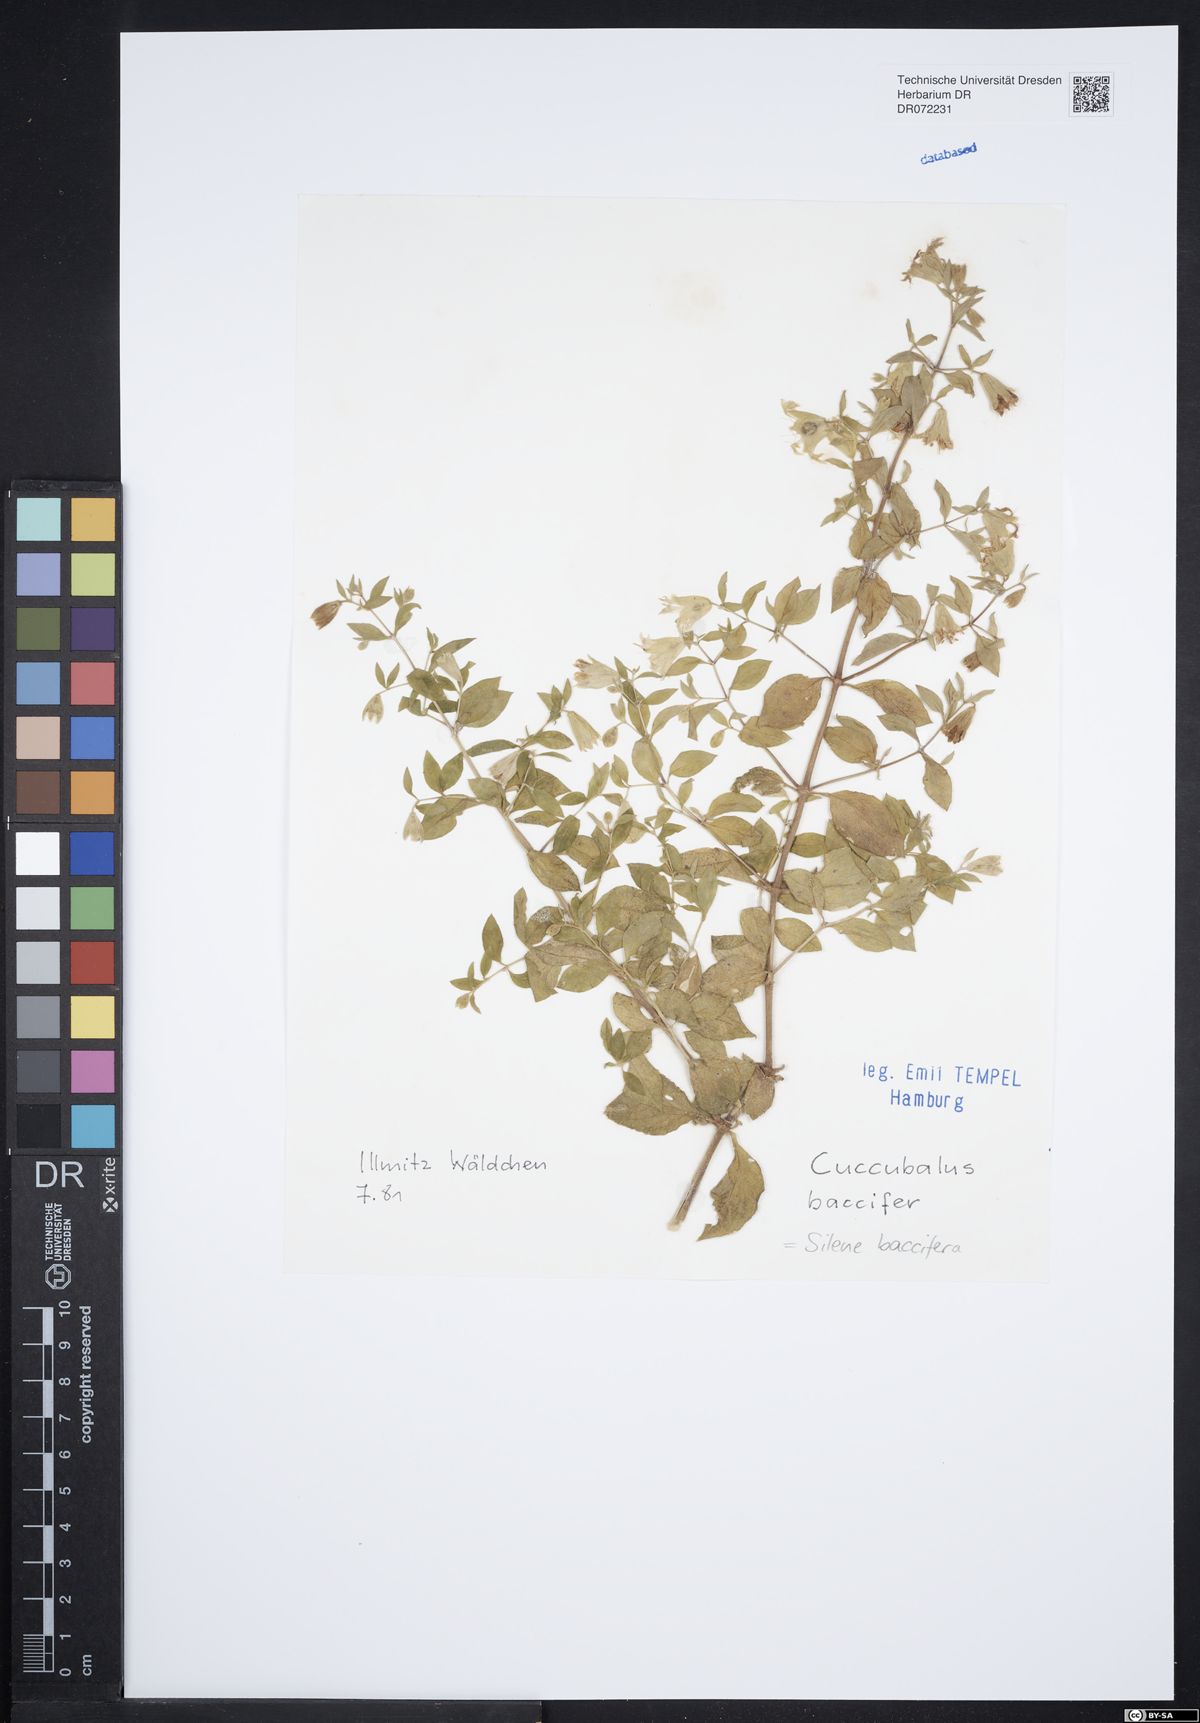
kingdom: Plantae
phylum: Tracheophyta
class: Magnoliopsida
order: Caryophyllales
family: Caryophyllaceae
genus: Silene
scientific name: Silene baccifera
